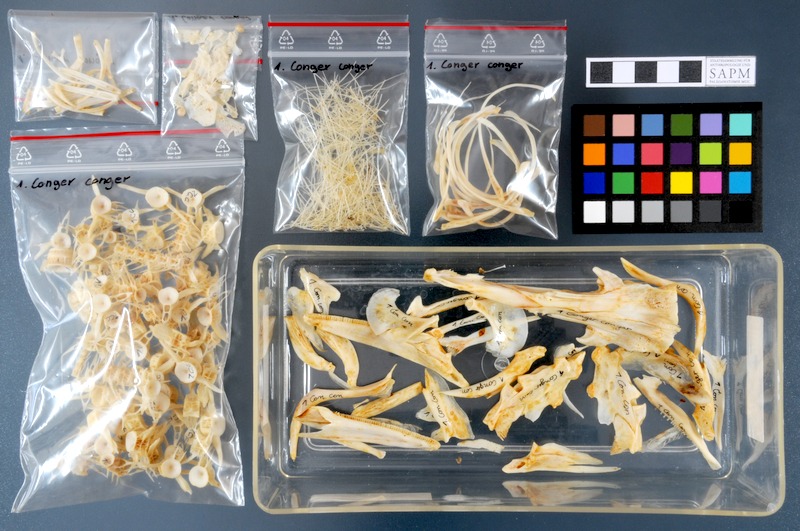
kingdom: Animalia
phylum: Chordata
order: Anguilliformes
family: Congridae
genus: Conger
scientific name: Conger conger
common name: Conger eel
